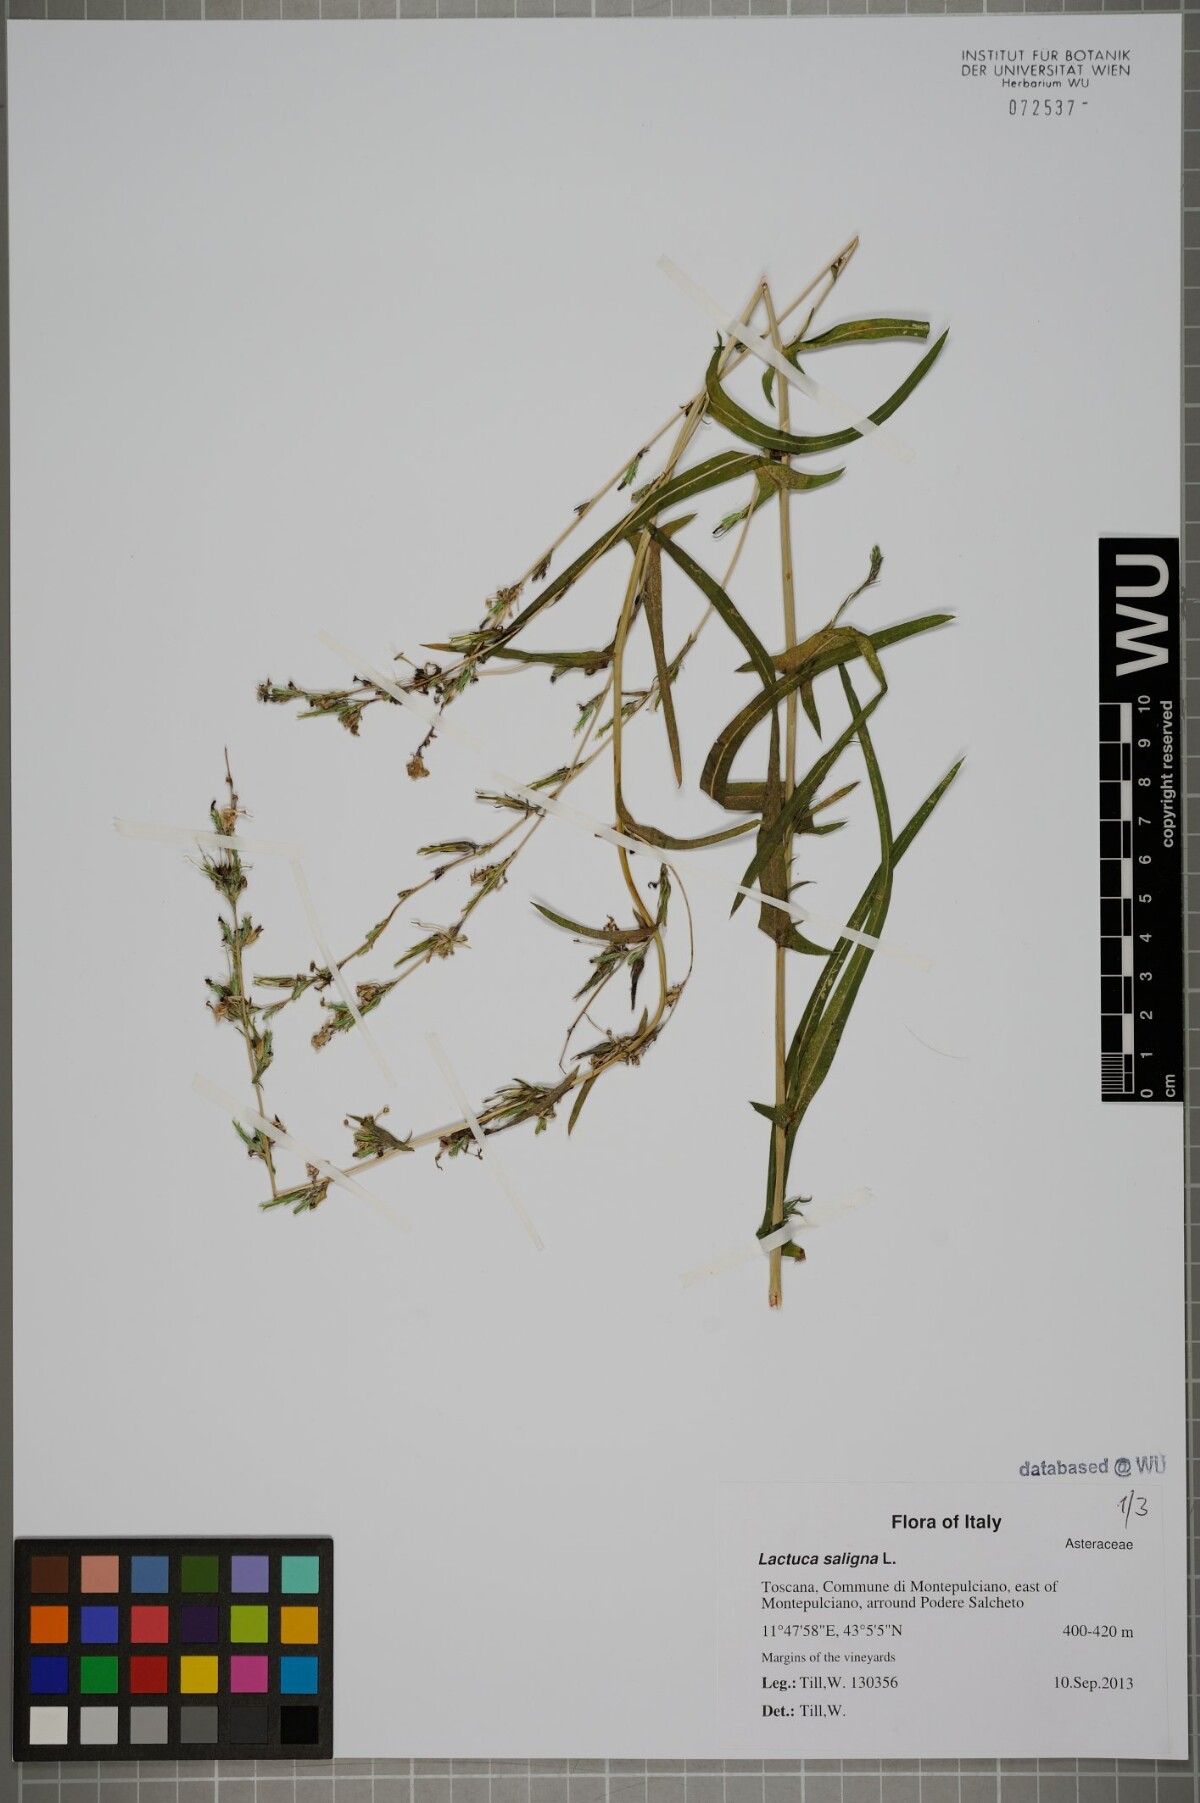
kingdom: Plantae
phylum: Tracheophyta
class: Magnoliopsida
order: Asterales
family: Asteraceae
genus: Lactuca
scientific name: Lactuca saligna
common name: Wild lettuce
